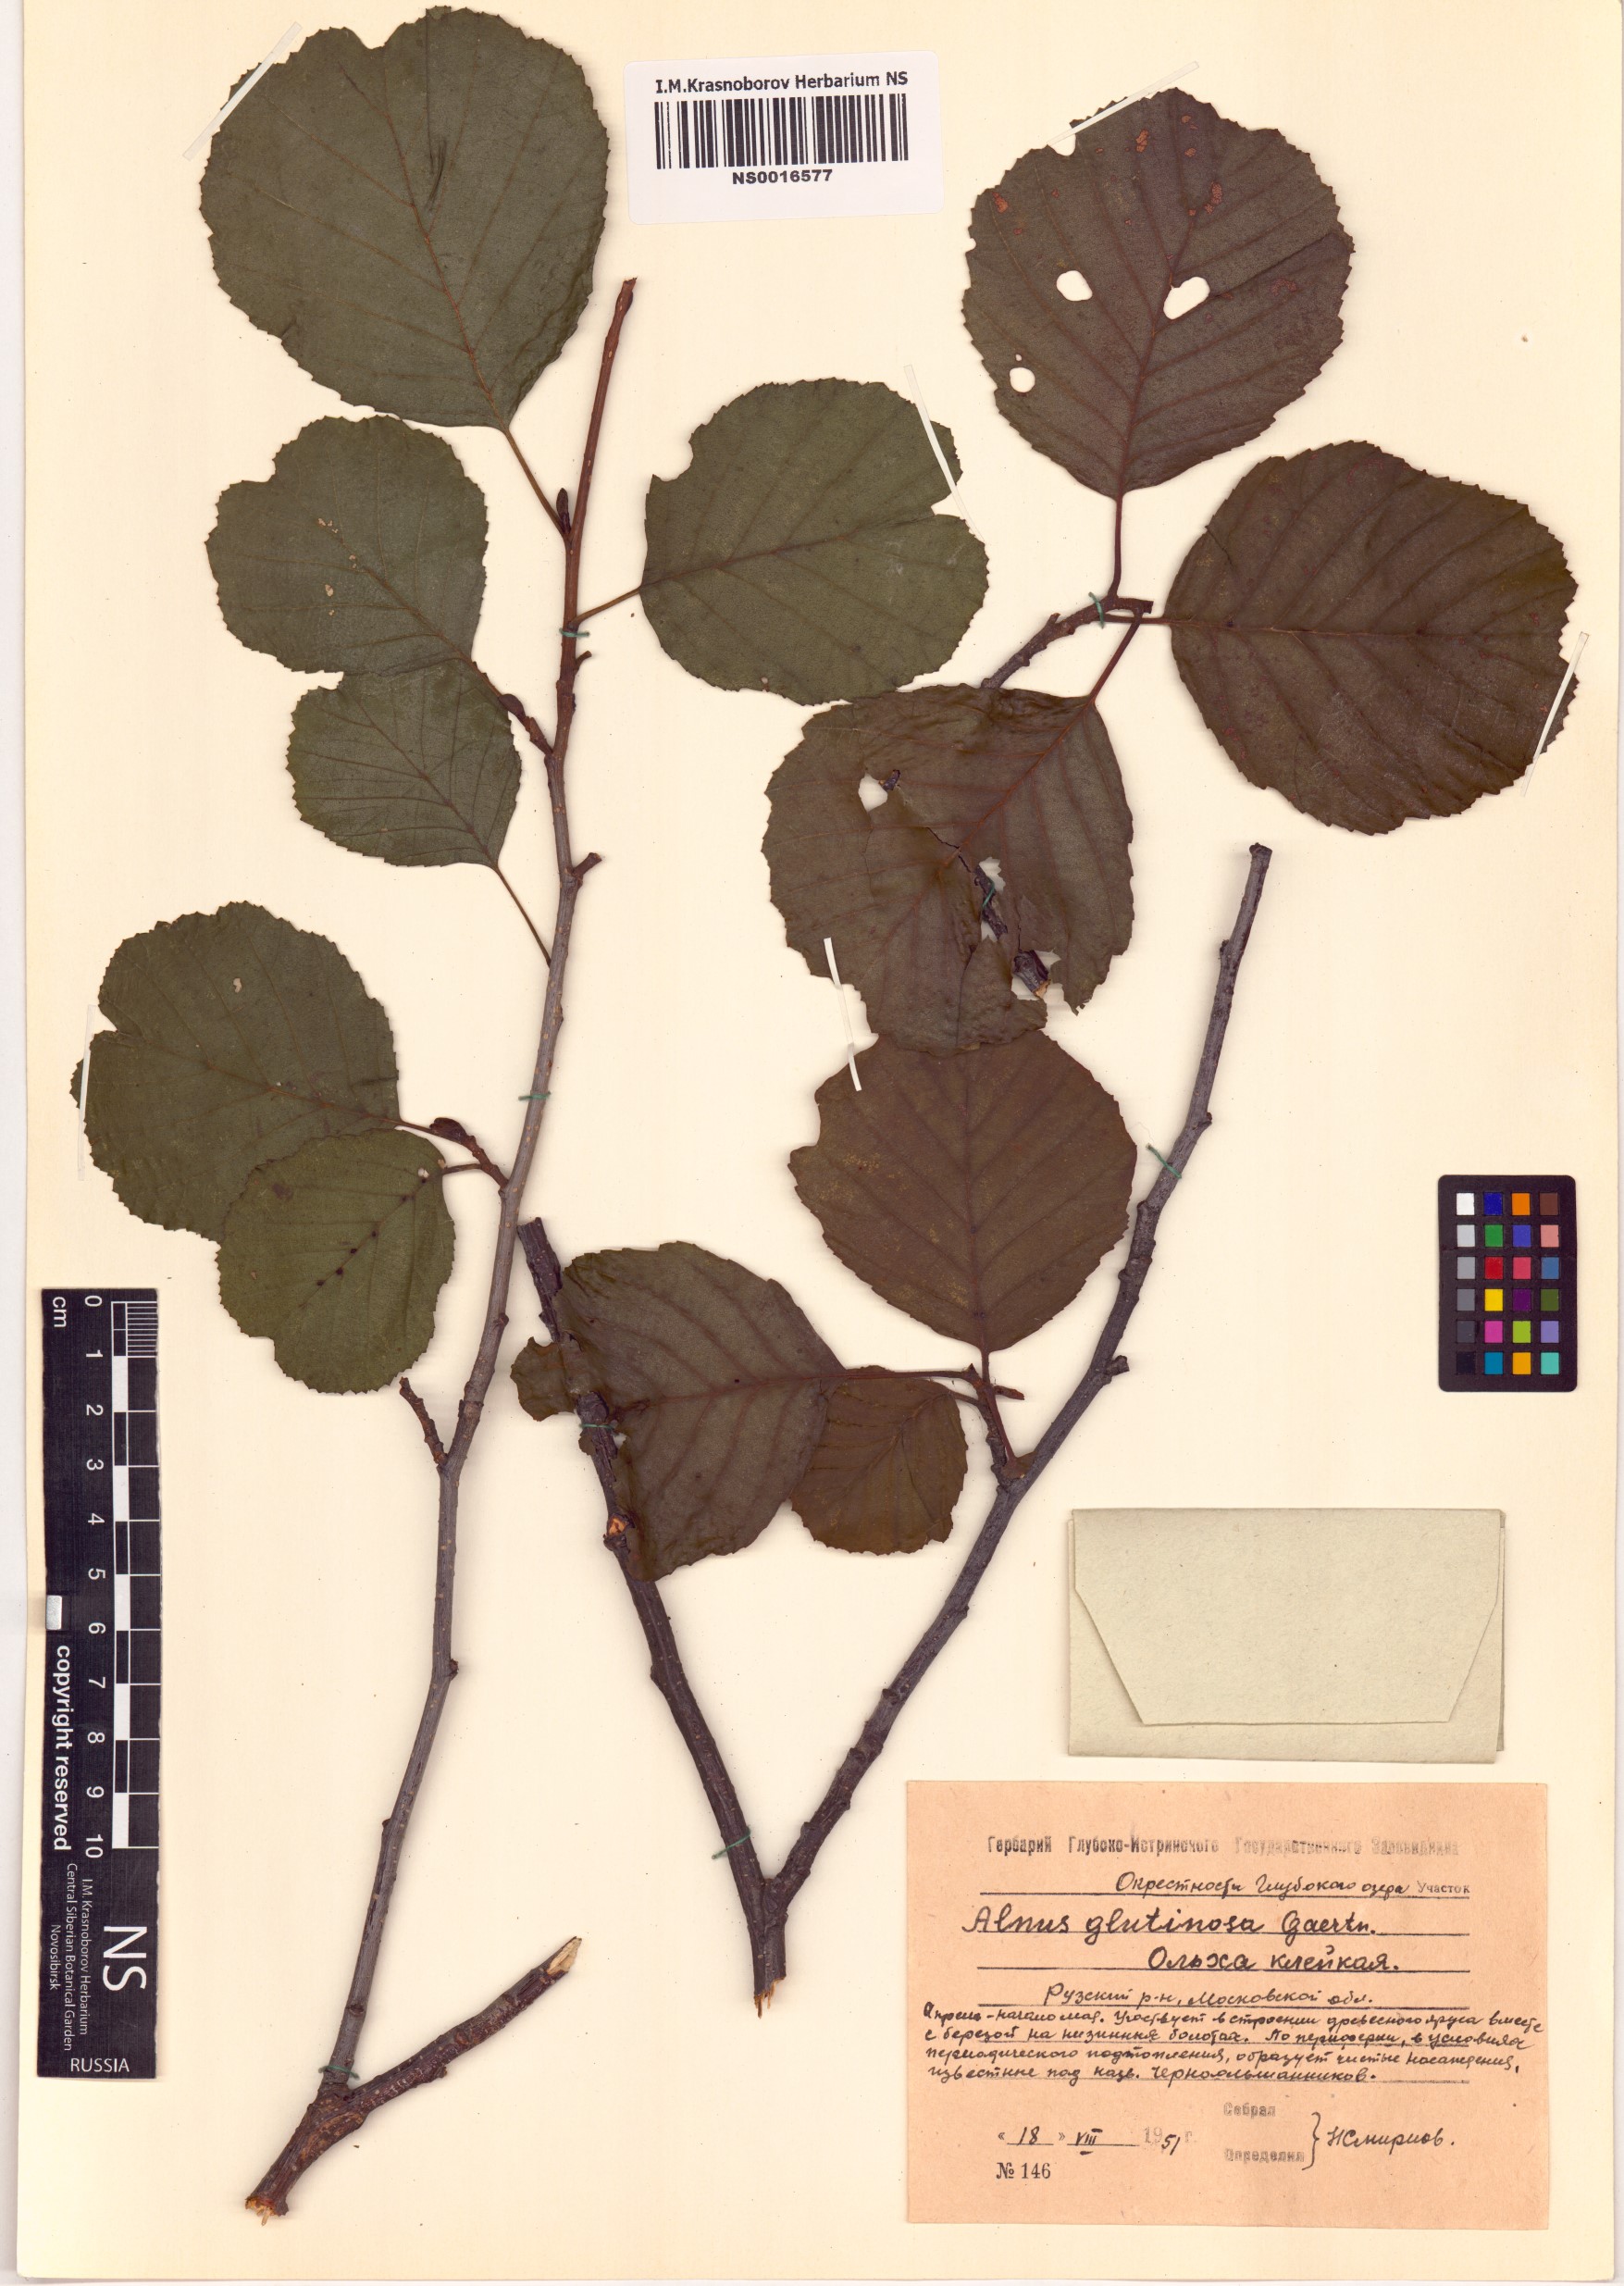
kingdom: Plantae
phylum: Tracheophyta
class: Magnoliopsida
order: Fagales
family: Betulaceae
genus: Alnus
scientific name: Alnus glutinosa
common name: Black alder
